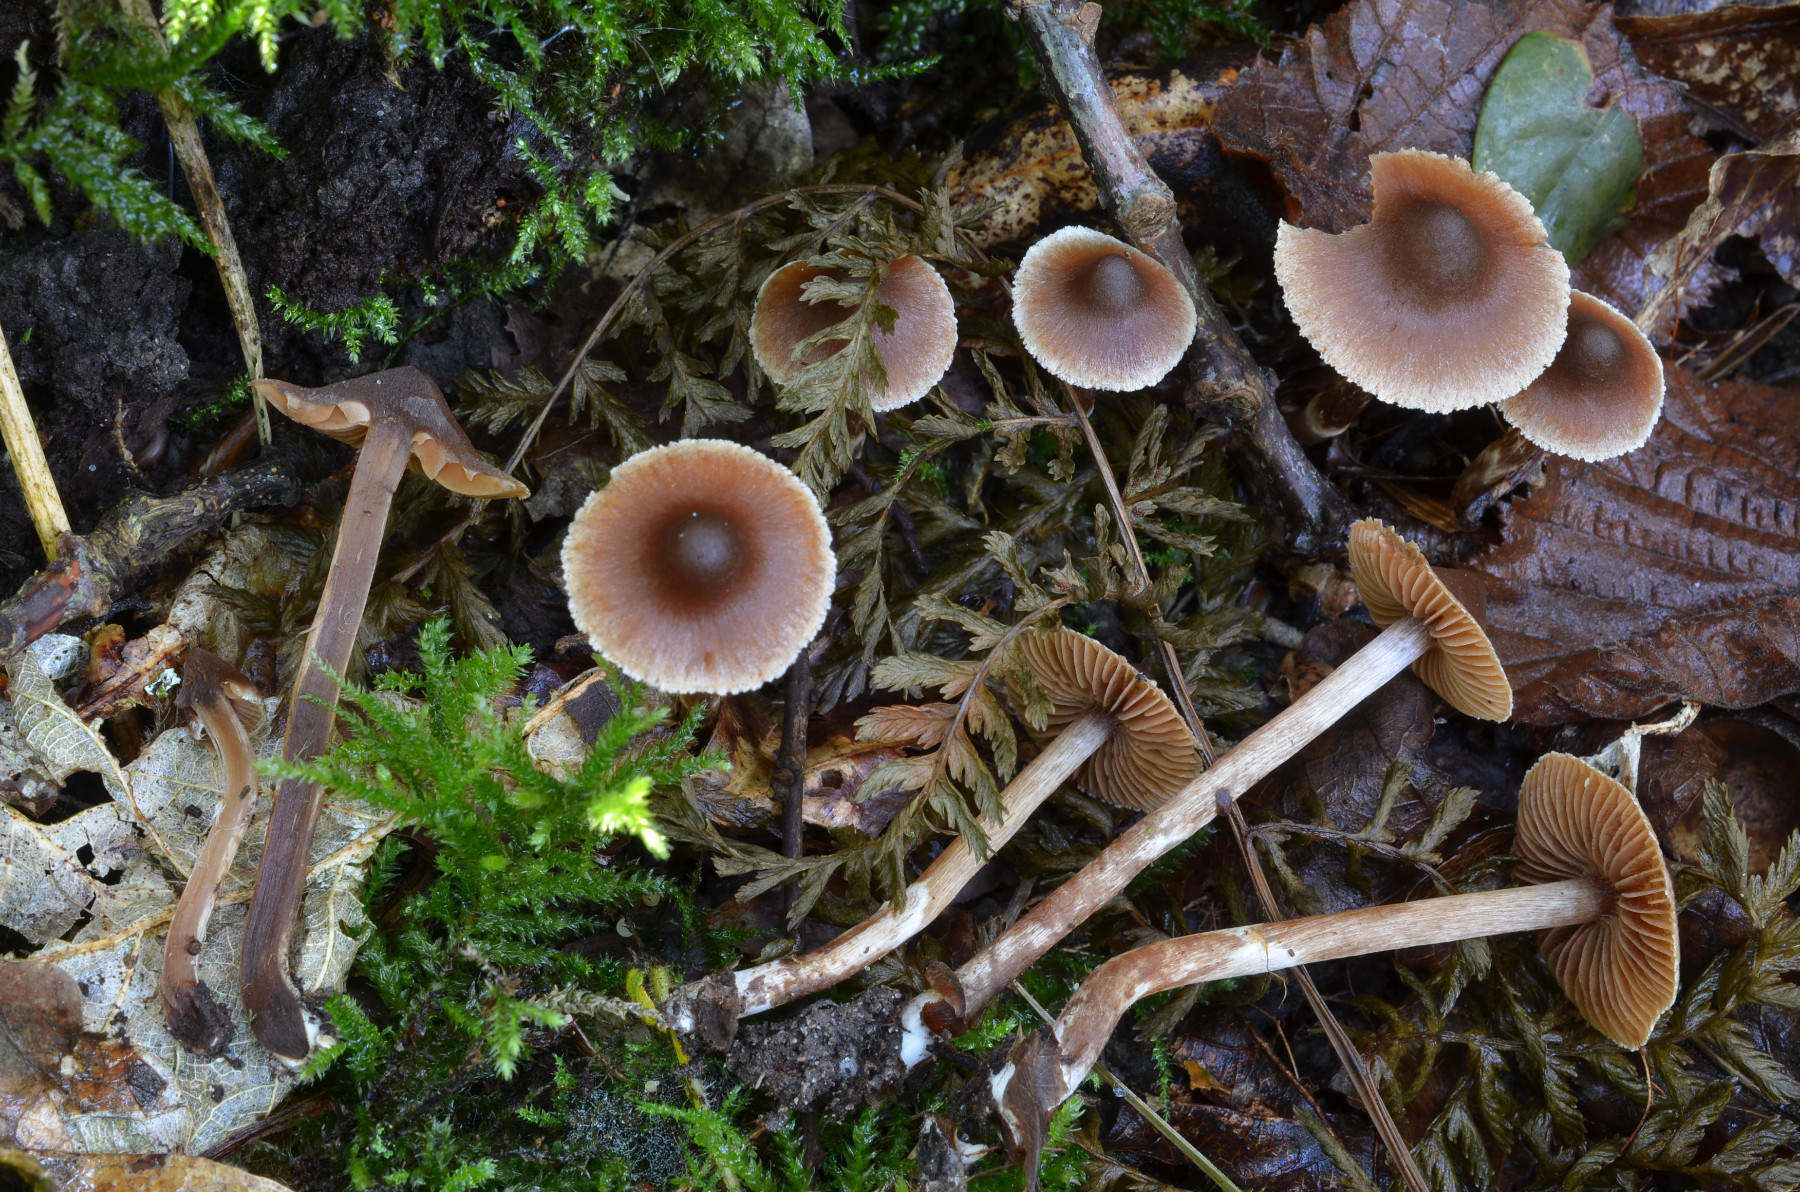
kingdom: Fungi
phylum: Basidiomycota
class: Agaricomycetes
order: Agaricales
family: Cortinariaceae
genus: Cortinarius
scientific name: Cortinarius flexibilifolius
